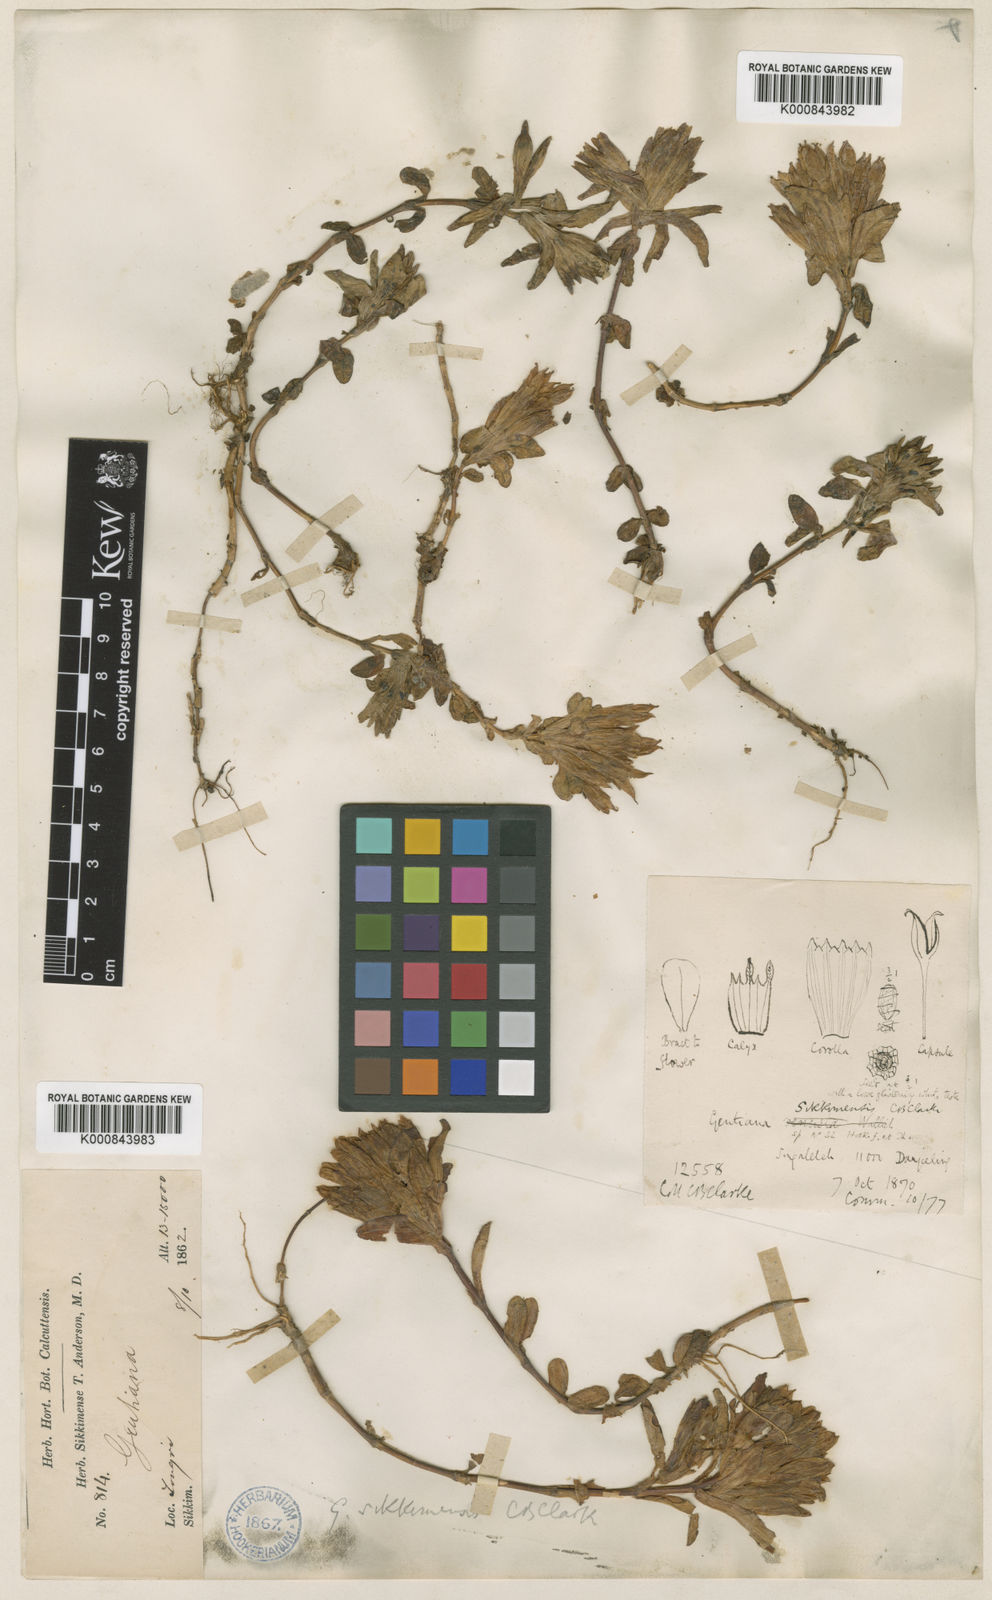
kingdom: Plantae
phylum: Tracheophyta
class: Magnoliopsida
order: Gentianales
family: Gentianaceae
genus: Gentiana
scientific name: Gentiana sikkimensis
